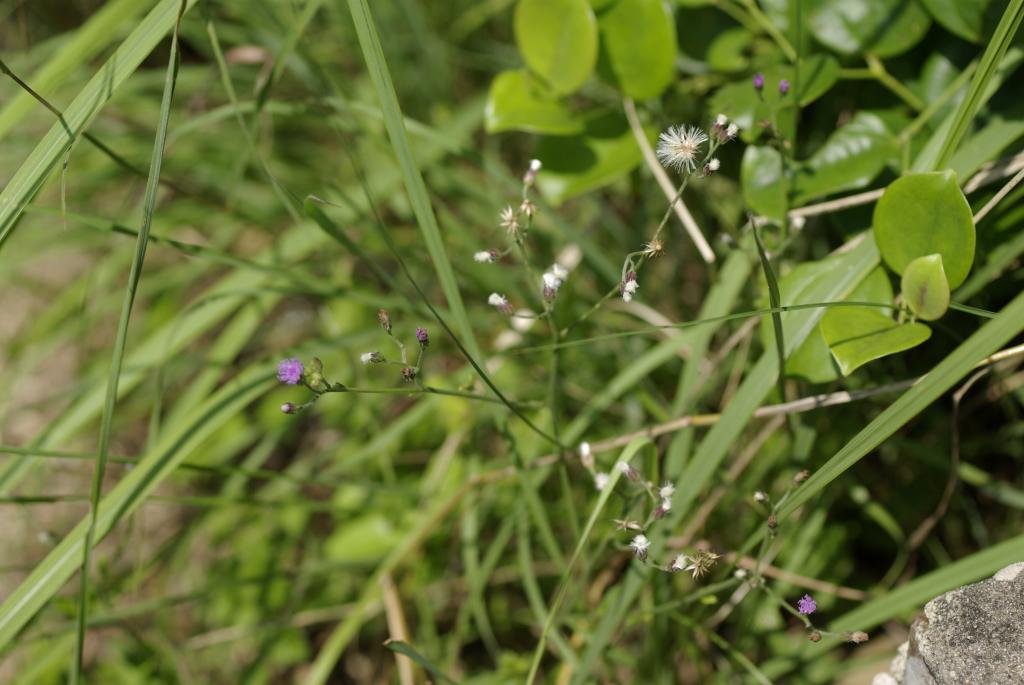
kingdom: Plantae
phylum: Tracheophyta
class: Magnoliopsida
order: Asterales
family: Asteraceae
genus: Cyanthillium
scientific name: Cyanthillium cinereum
